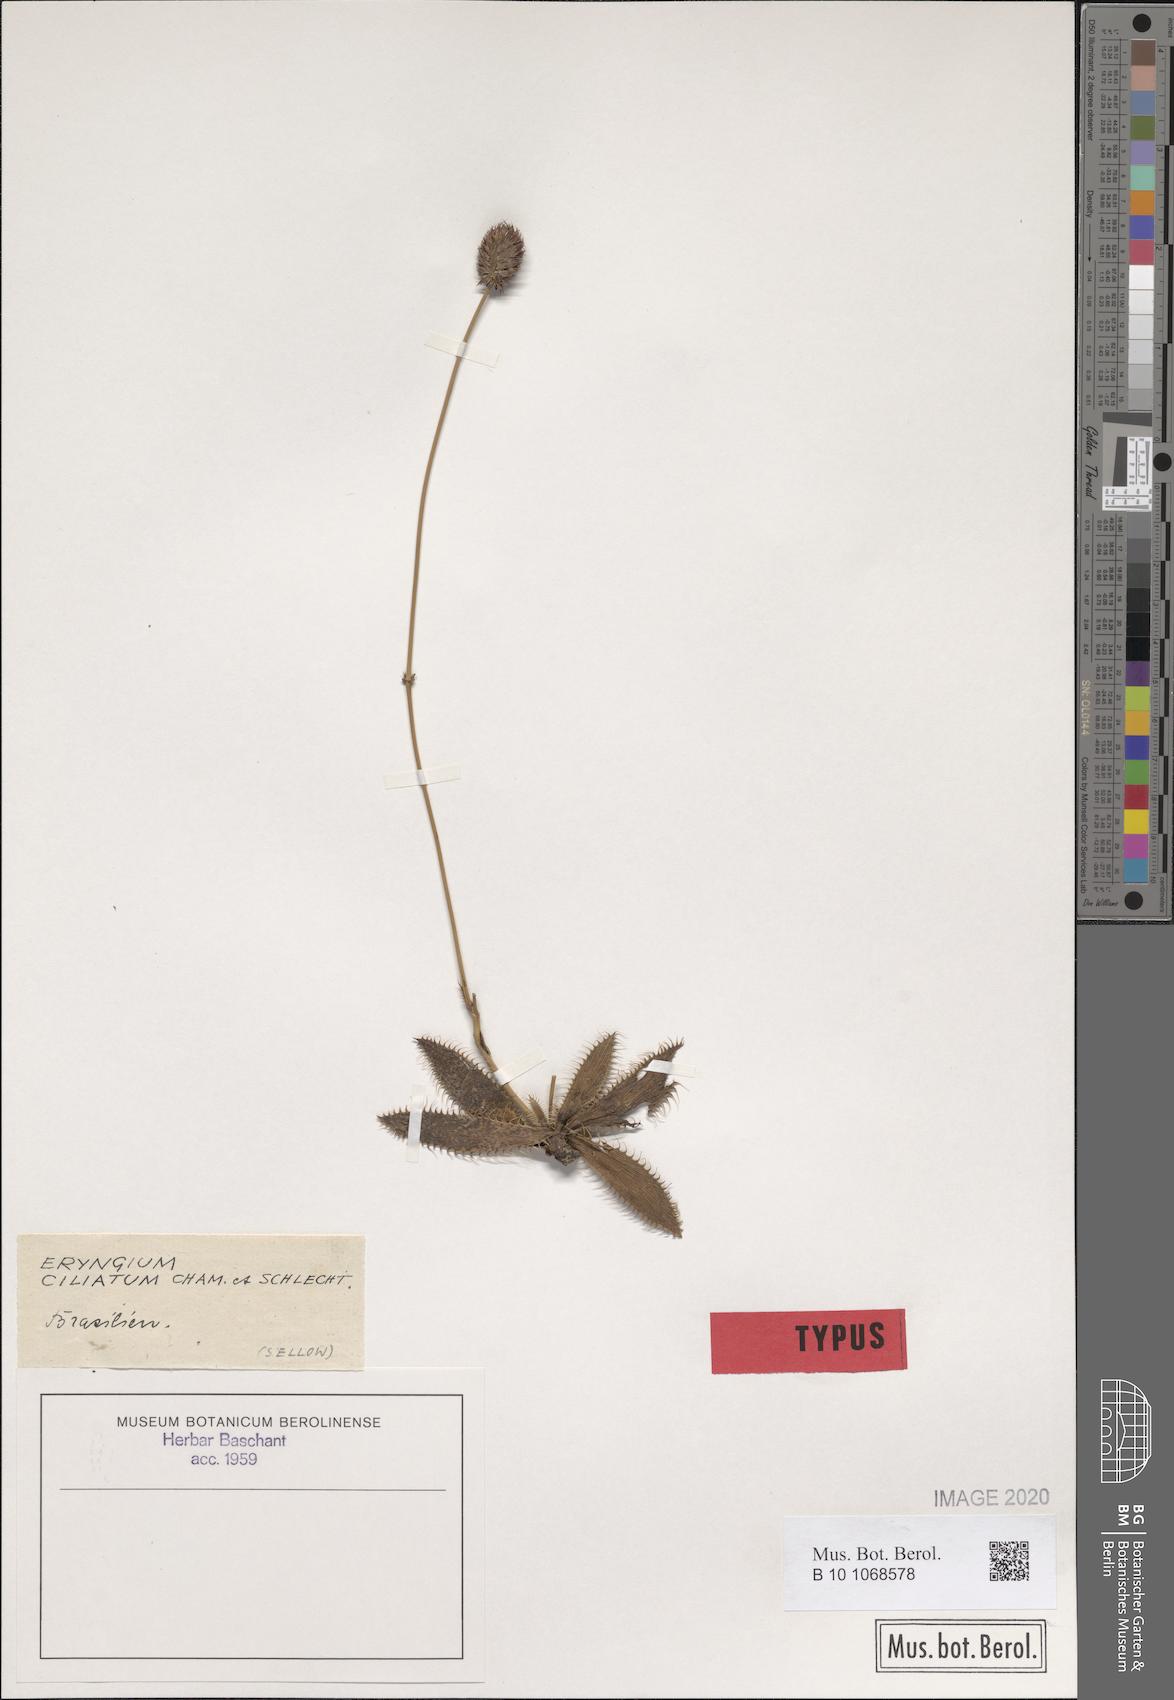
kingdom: Plantae
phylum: Tracheophyta
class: Magnoliopsida
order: Apiales
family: Apiaceae
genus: Eryngium
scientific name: Eryngium ciliatum
